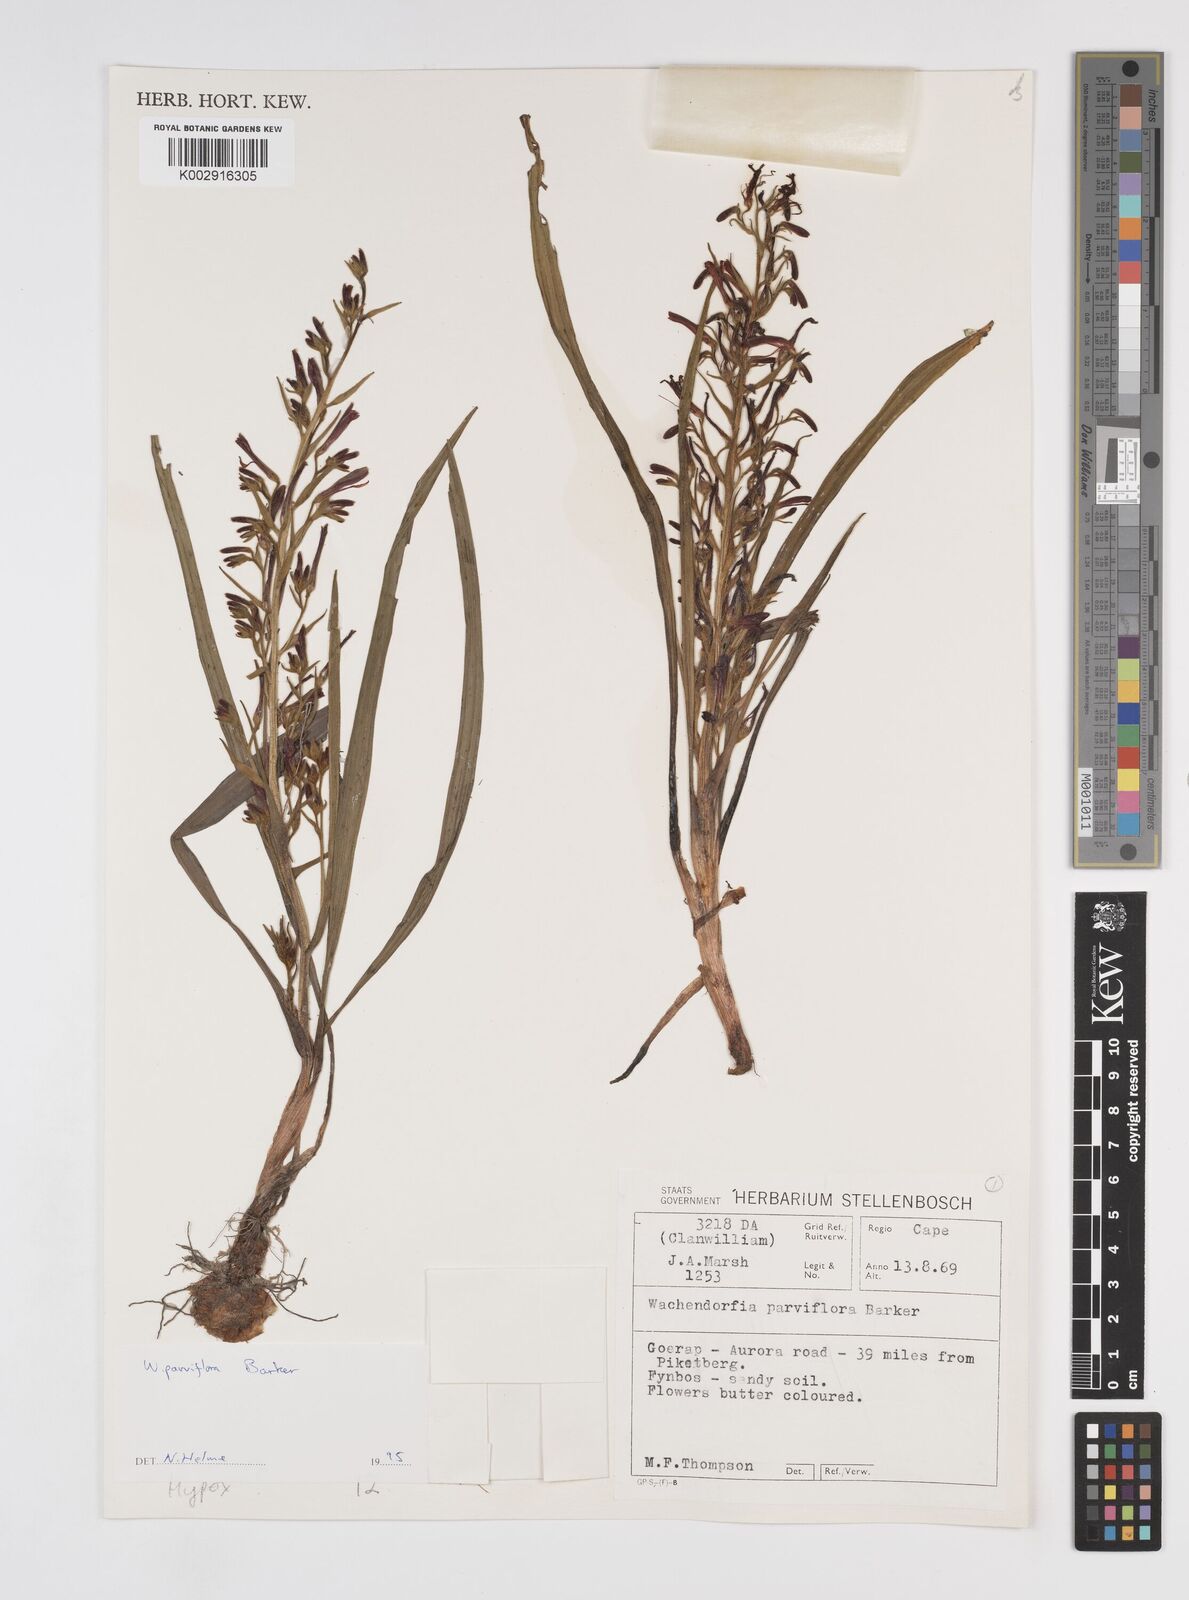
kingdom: Plantae
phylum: Tracheophyta
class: Liliopsida
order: Commelinales
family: Haemodoraceae
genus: Wachendorfia
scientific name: Wachendorfia multiflora
